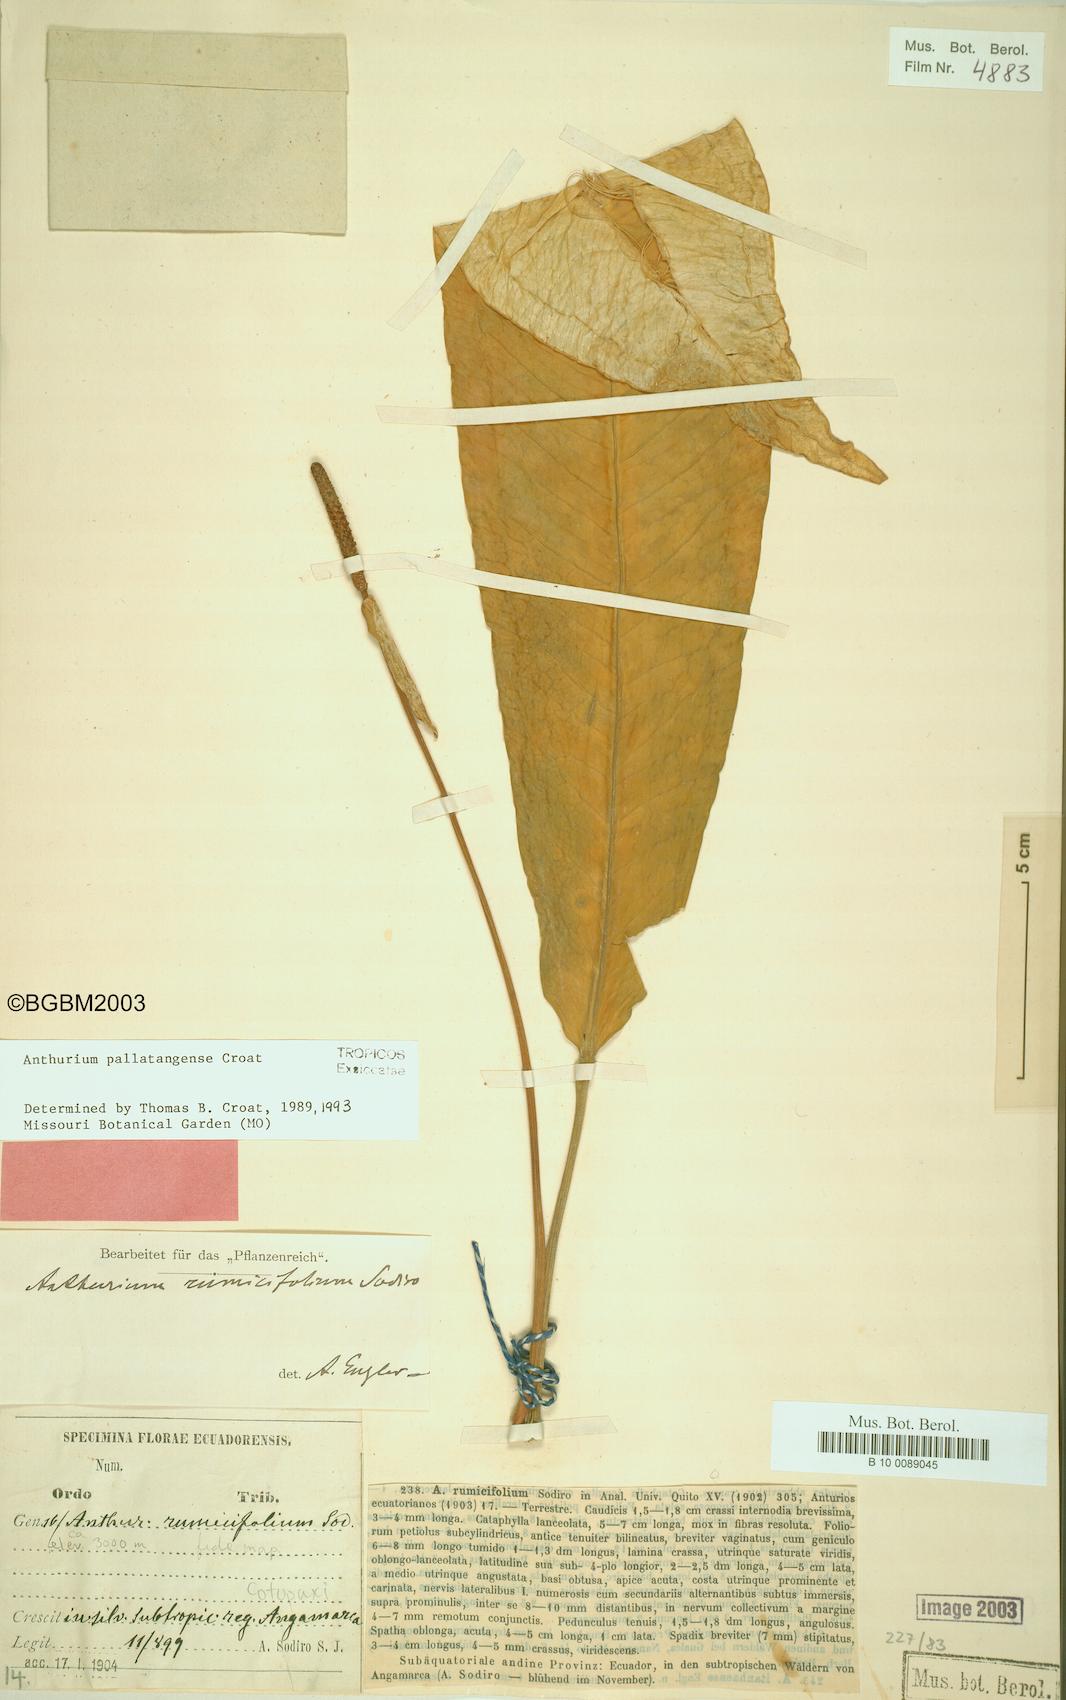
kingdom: Plantae
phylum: Tracheophyta
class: Liliopsida
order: Alismatales
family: Araceae
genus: Anthurium
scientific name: Anthurium pallatangense
